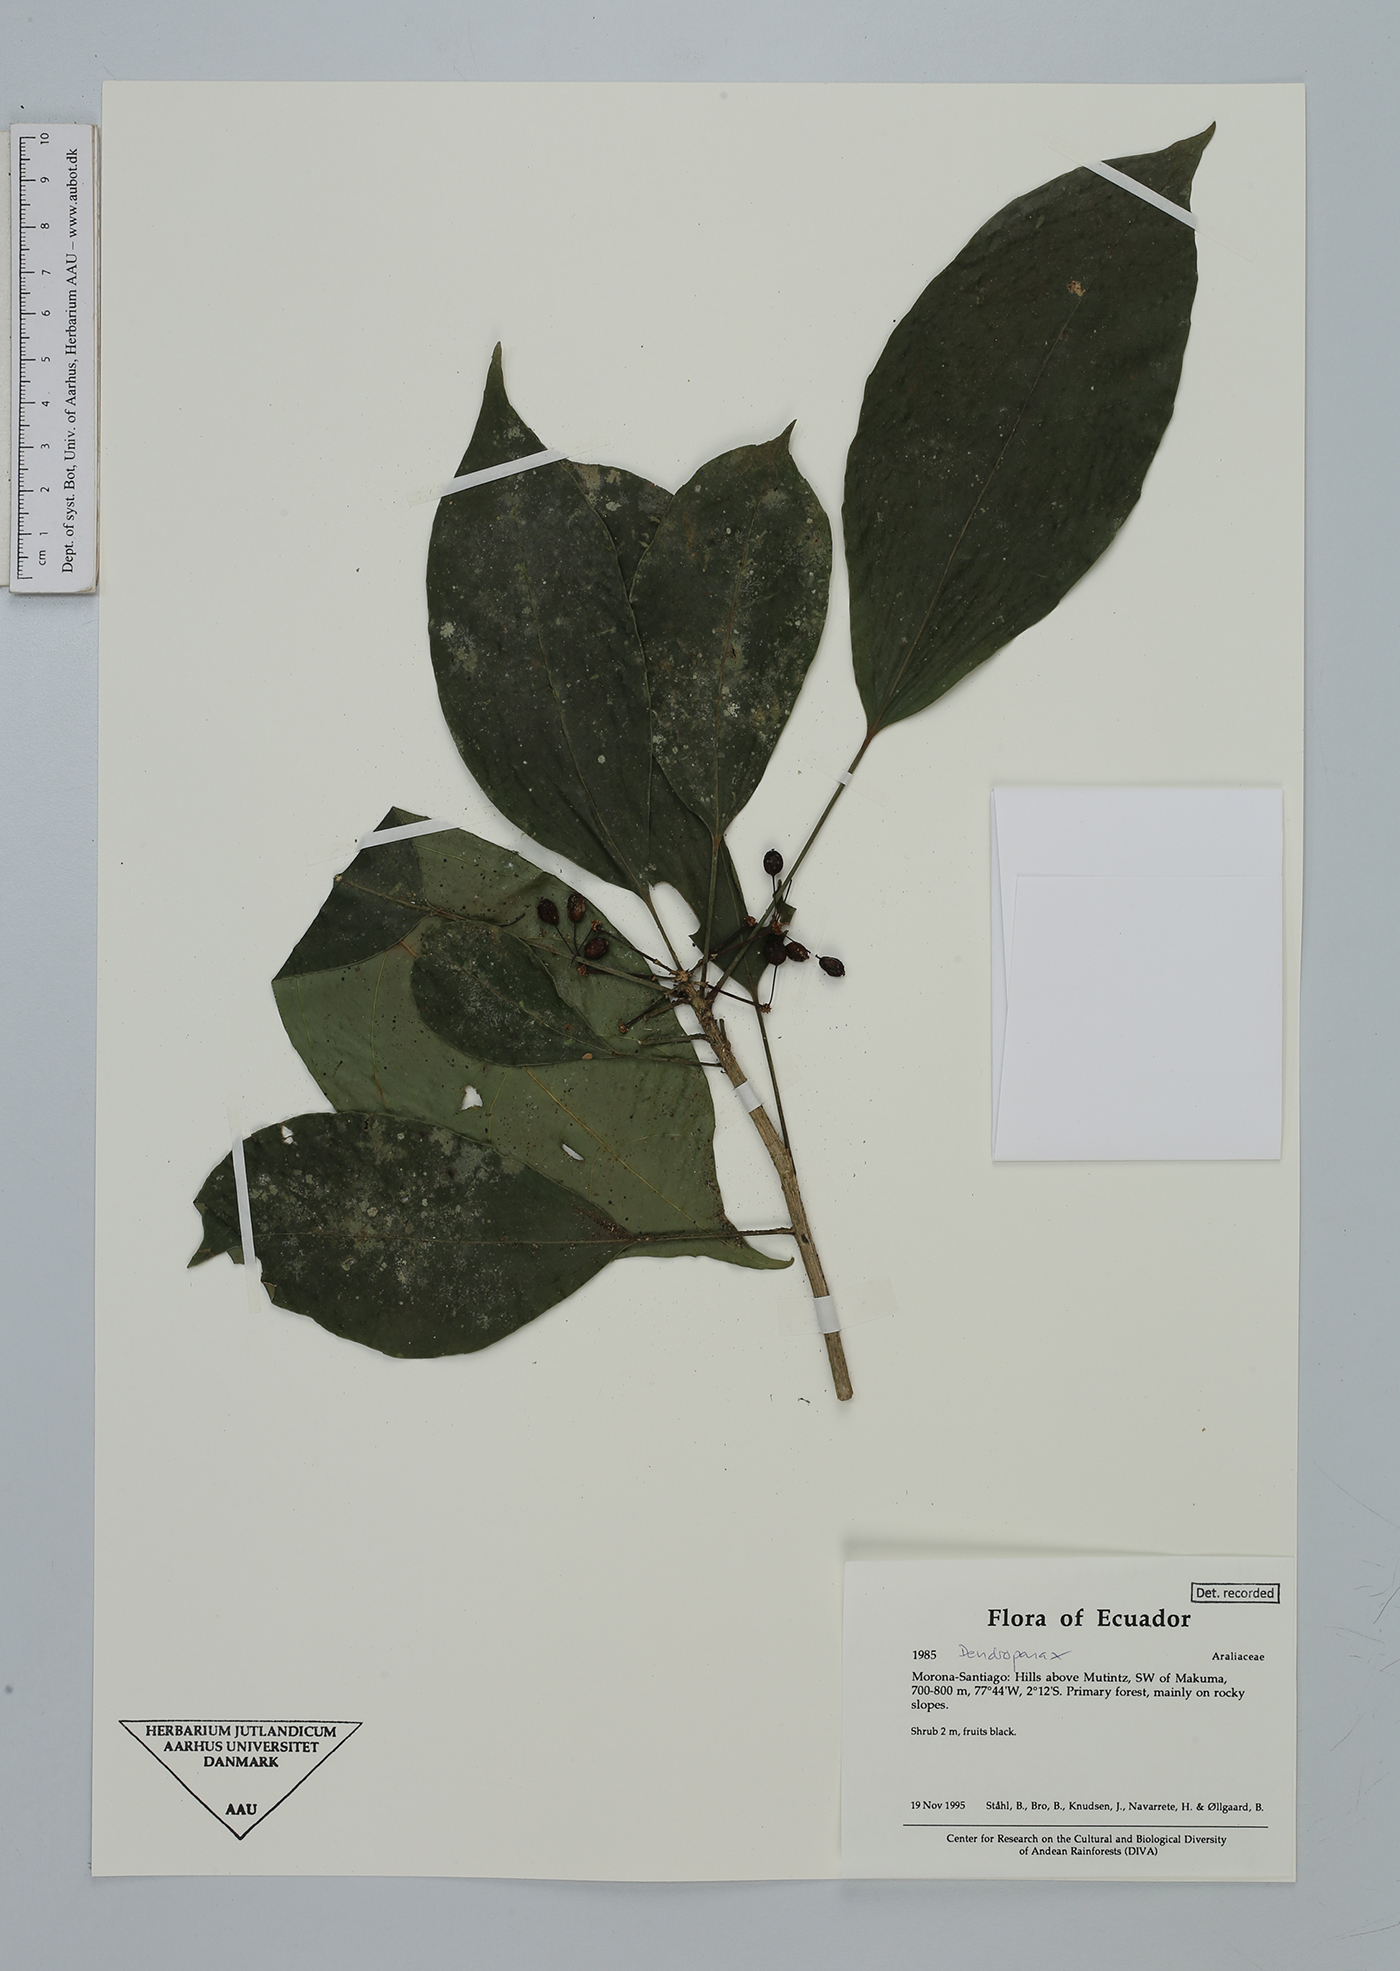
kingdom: Plantae
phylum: Tracheophyta
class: Magnoliopsida
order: Apiales
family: Araliaceae
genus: Dendropanax
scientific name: Dendropanax
